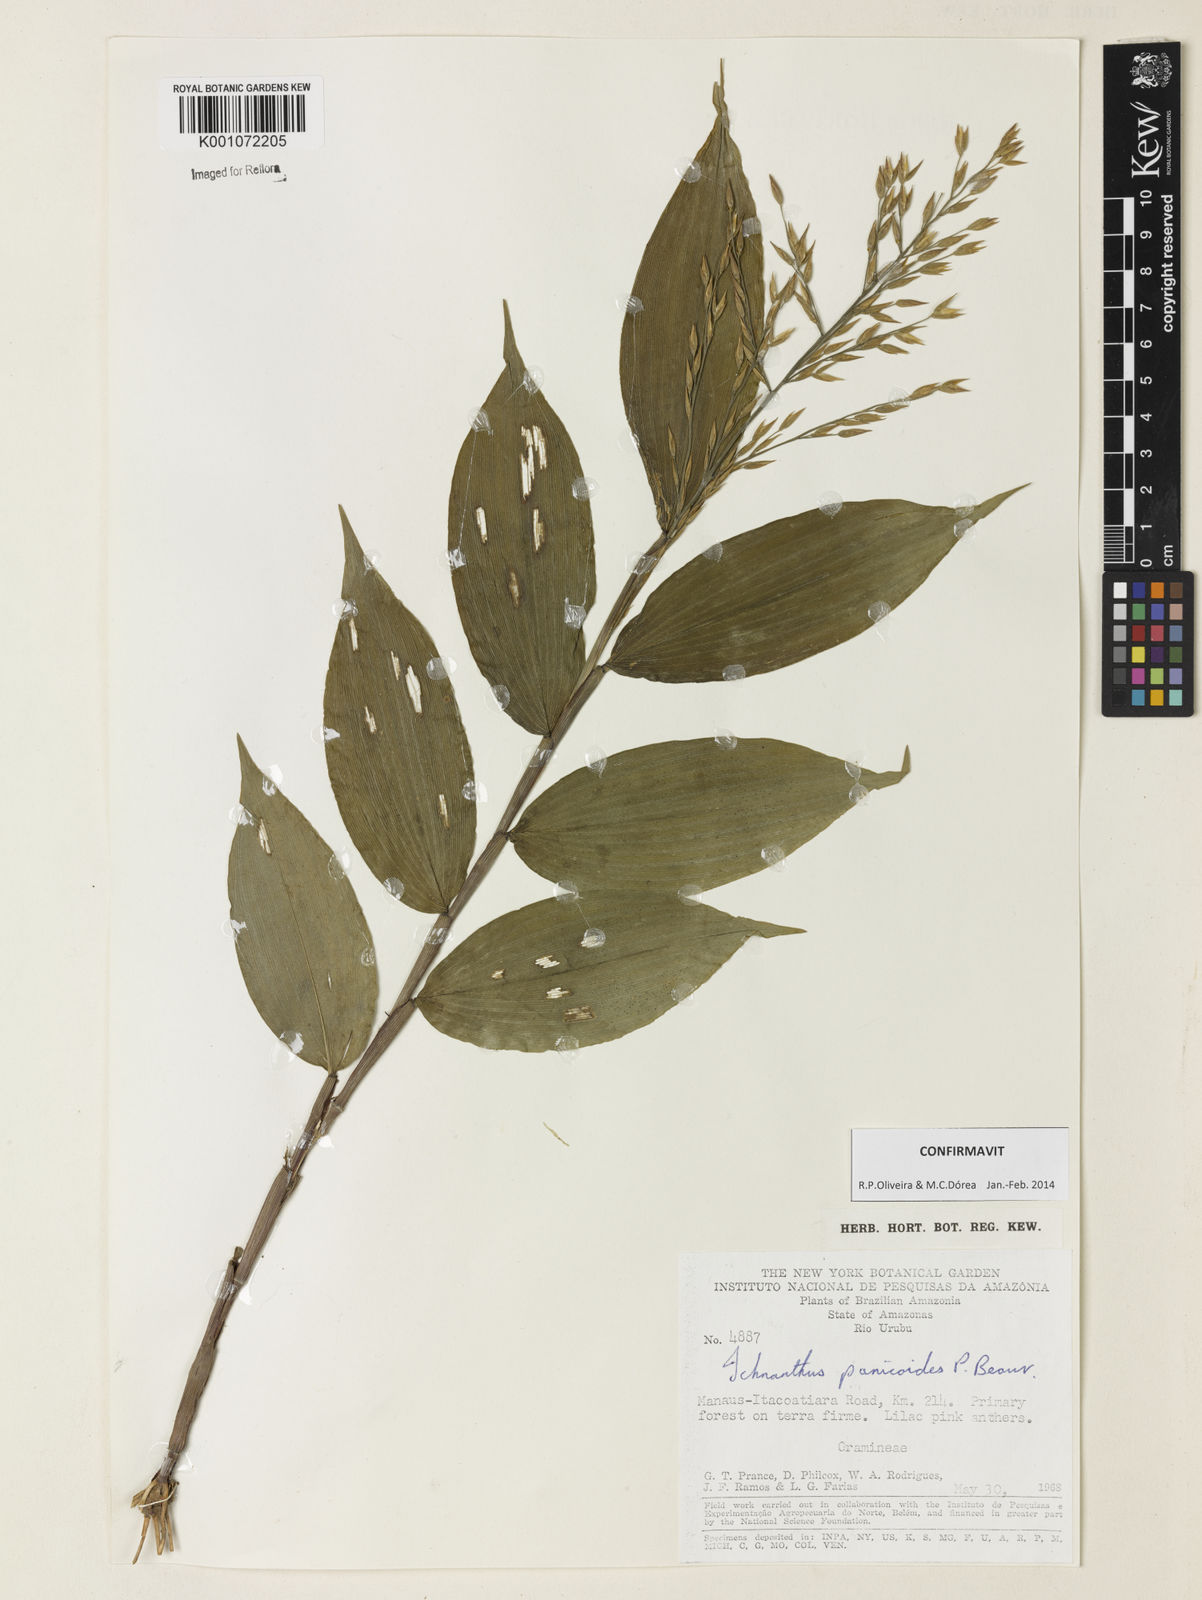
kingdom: Plantae
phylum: Tracheophyta
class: Liliopsida
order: Poales
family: Poaceae
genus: Ichnanthus
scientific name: Ichnanthus panicoides
